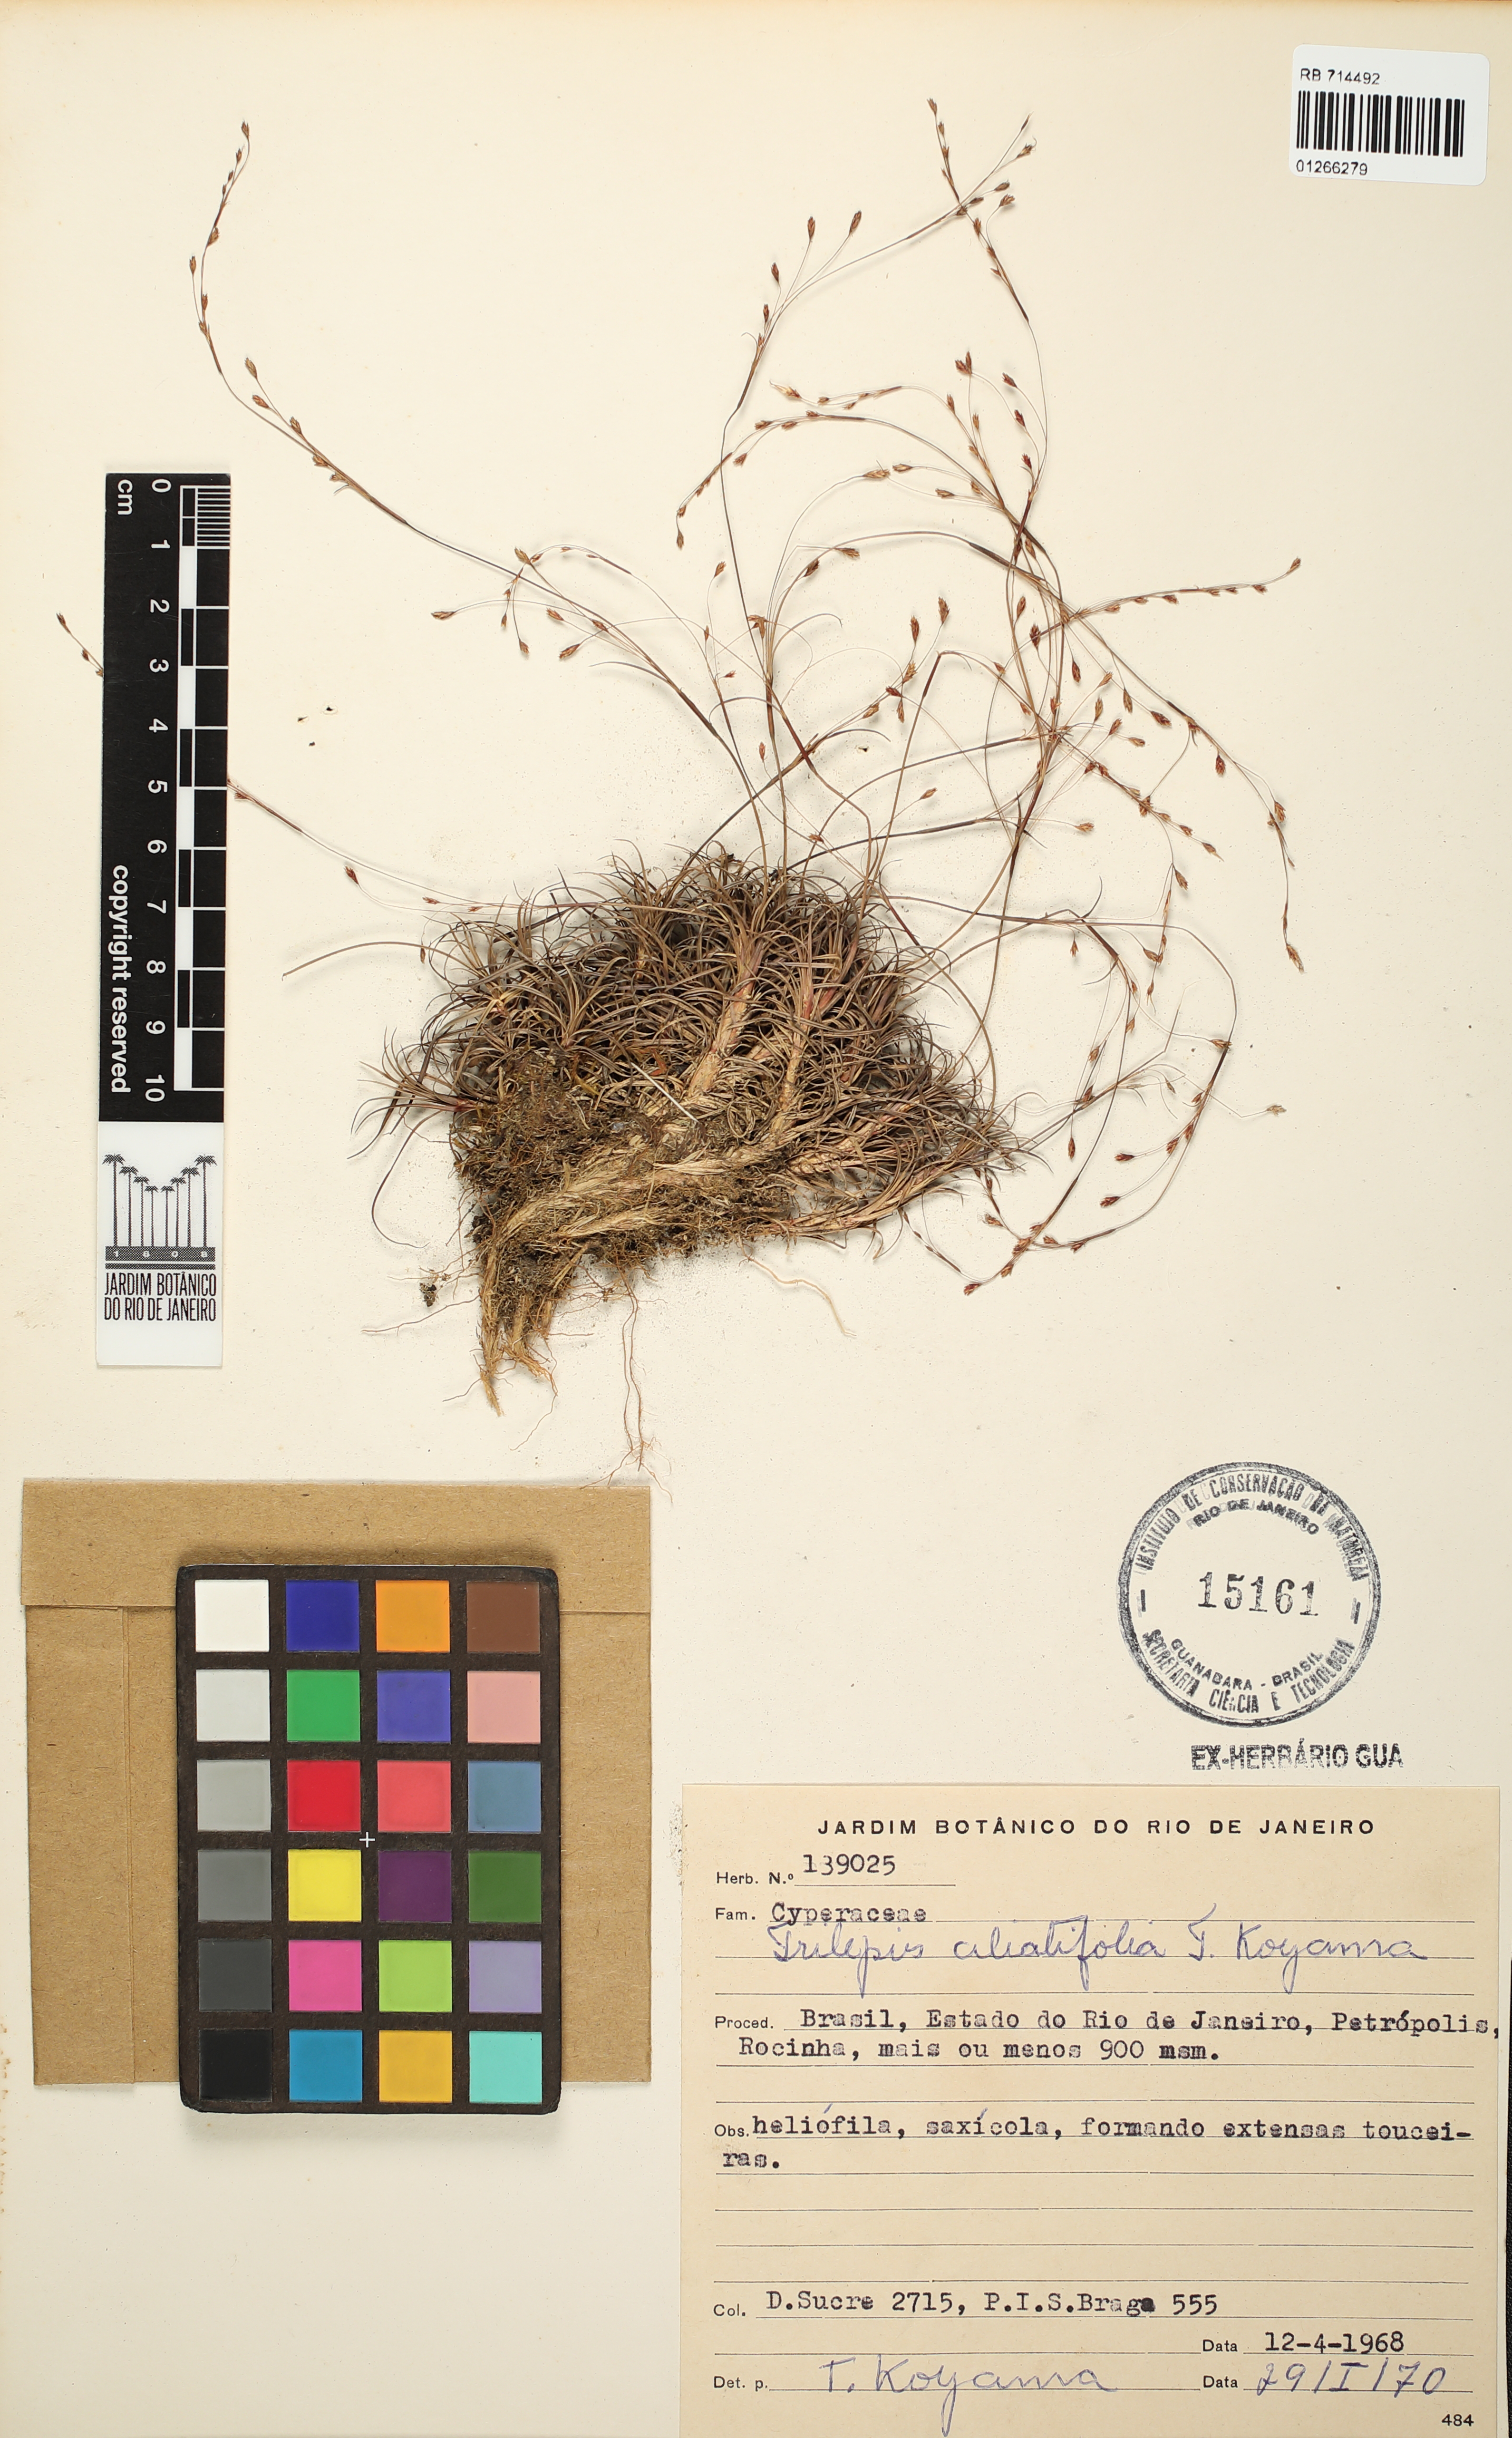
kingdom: Plantae
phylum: Tracheophyta
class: Liliopsida
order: Poales
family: Cyperaceae
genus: Trilepis
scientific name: Trilepis ciliatifolia
